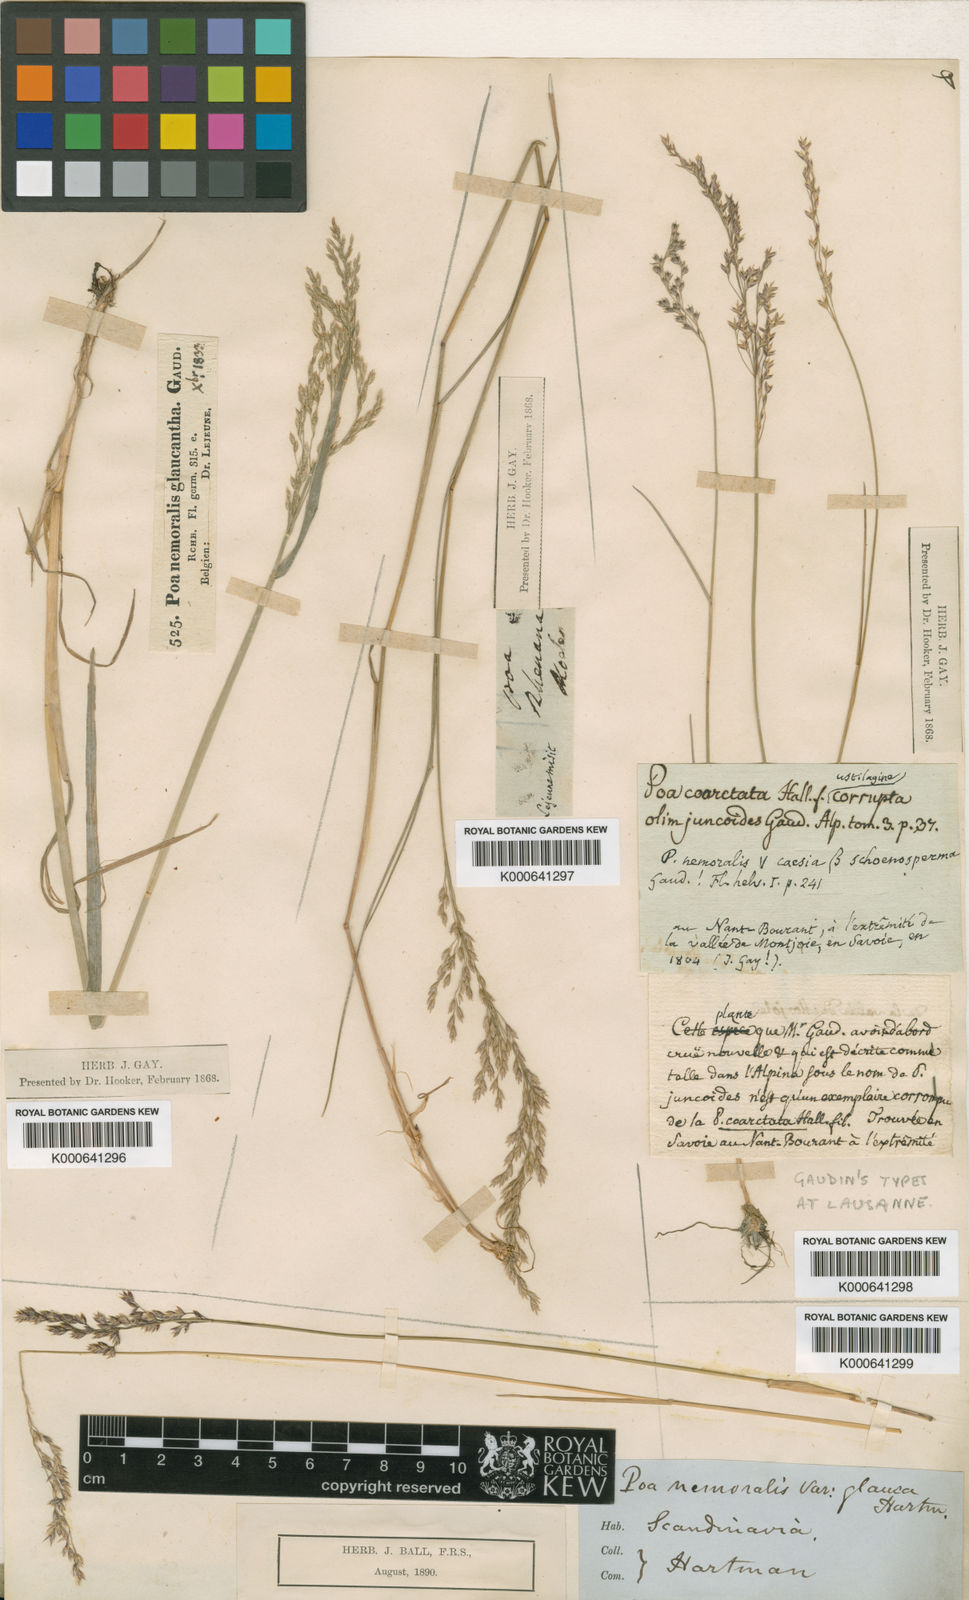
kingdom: Plantae
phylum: Tracheophyta
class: Liliopsida
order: Poales
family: Poaceae
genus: Poa
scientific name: Poa
